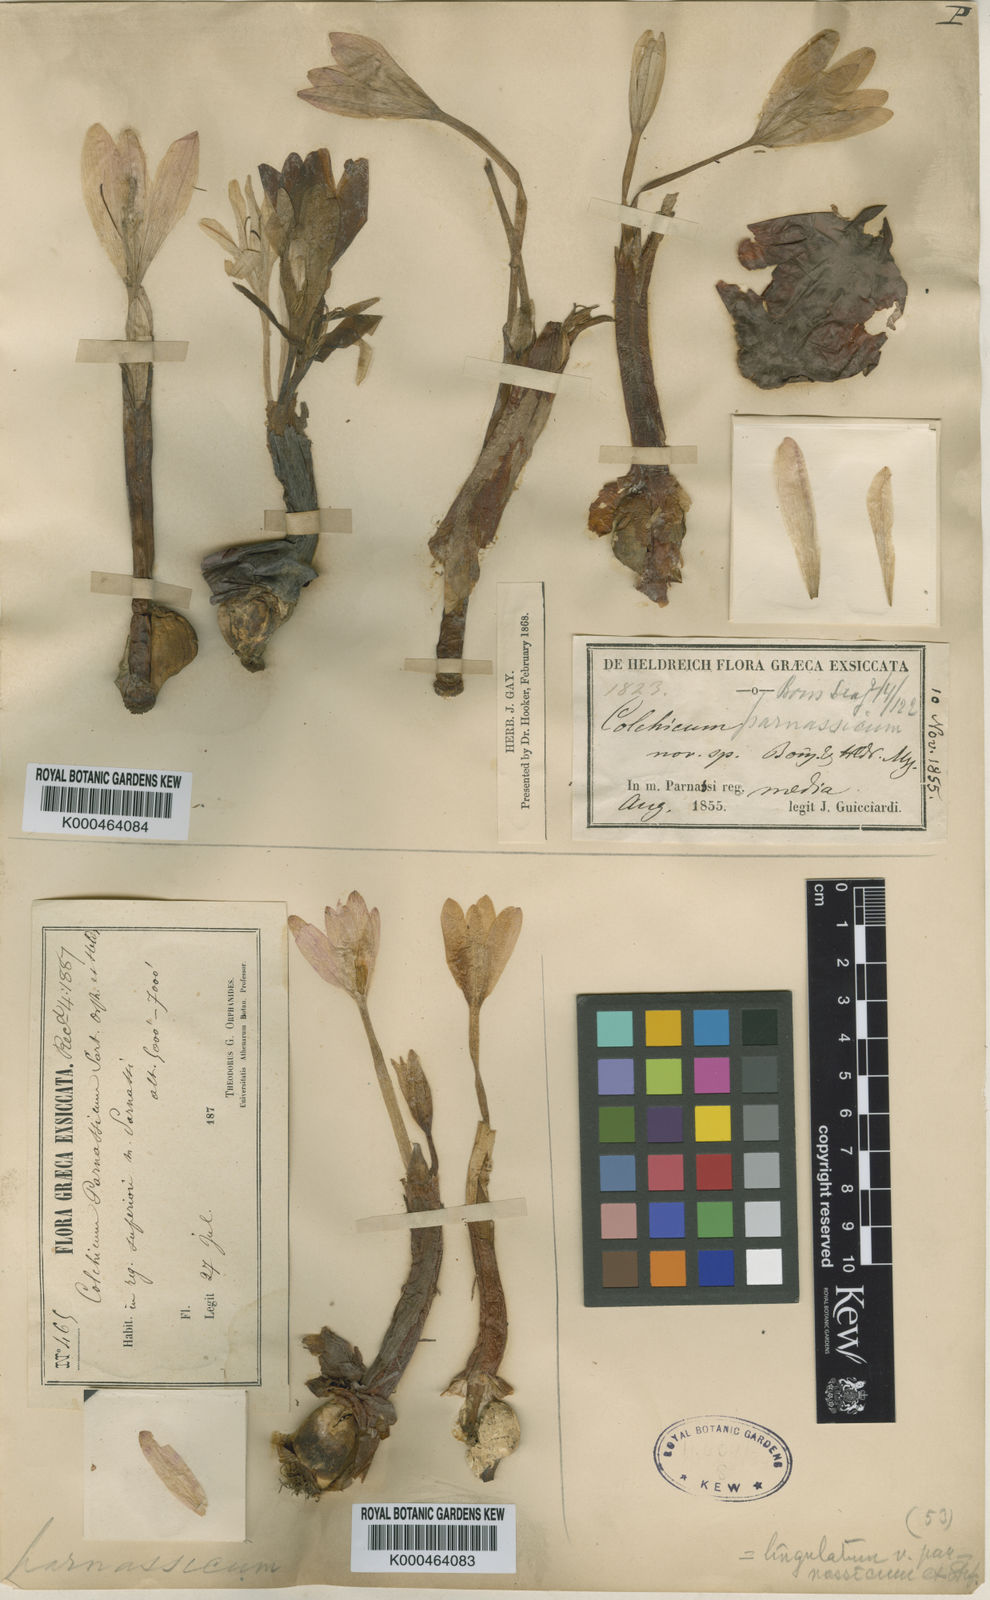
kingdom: Plantae
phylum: Tracheophyta
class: Liliopsida
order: Liliales
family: Colchicaceae
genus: Colchicum
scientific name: Colchicum parnassicum
